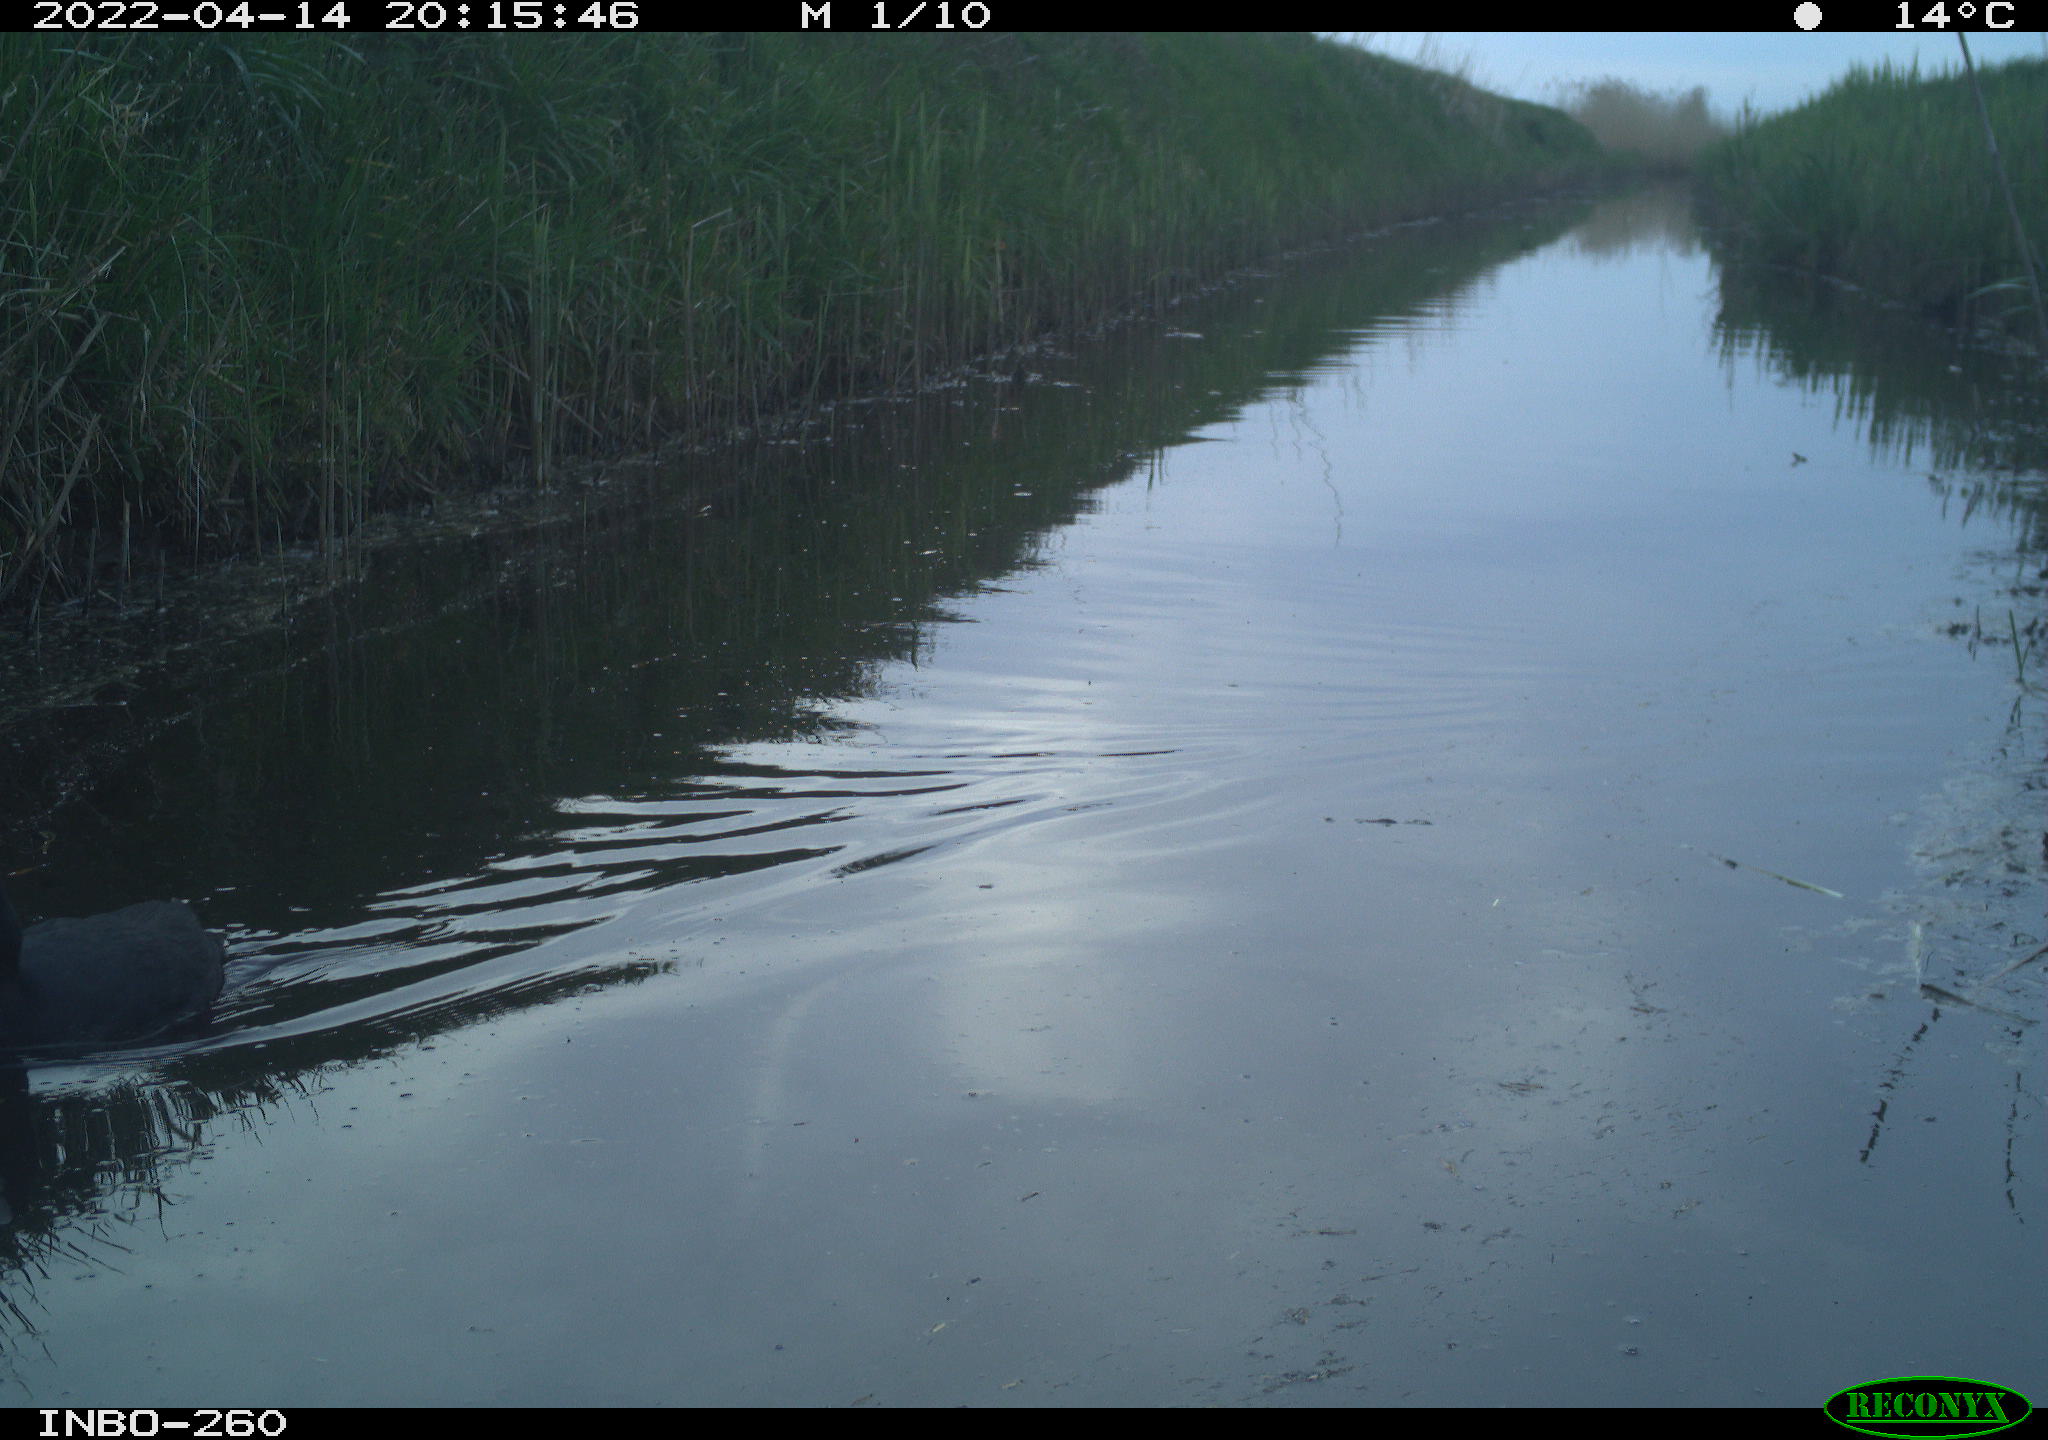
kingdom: Animalia
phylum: Chordata
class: Aves
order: Gruiformes
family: Rallidae
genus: Fulica
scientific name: Fulica atra
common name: Eurasian coot
